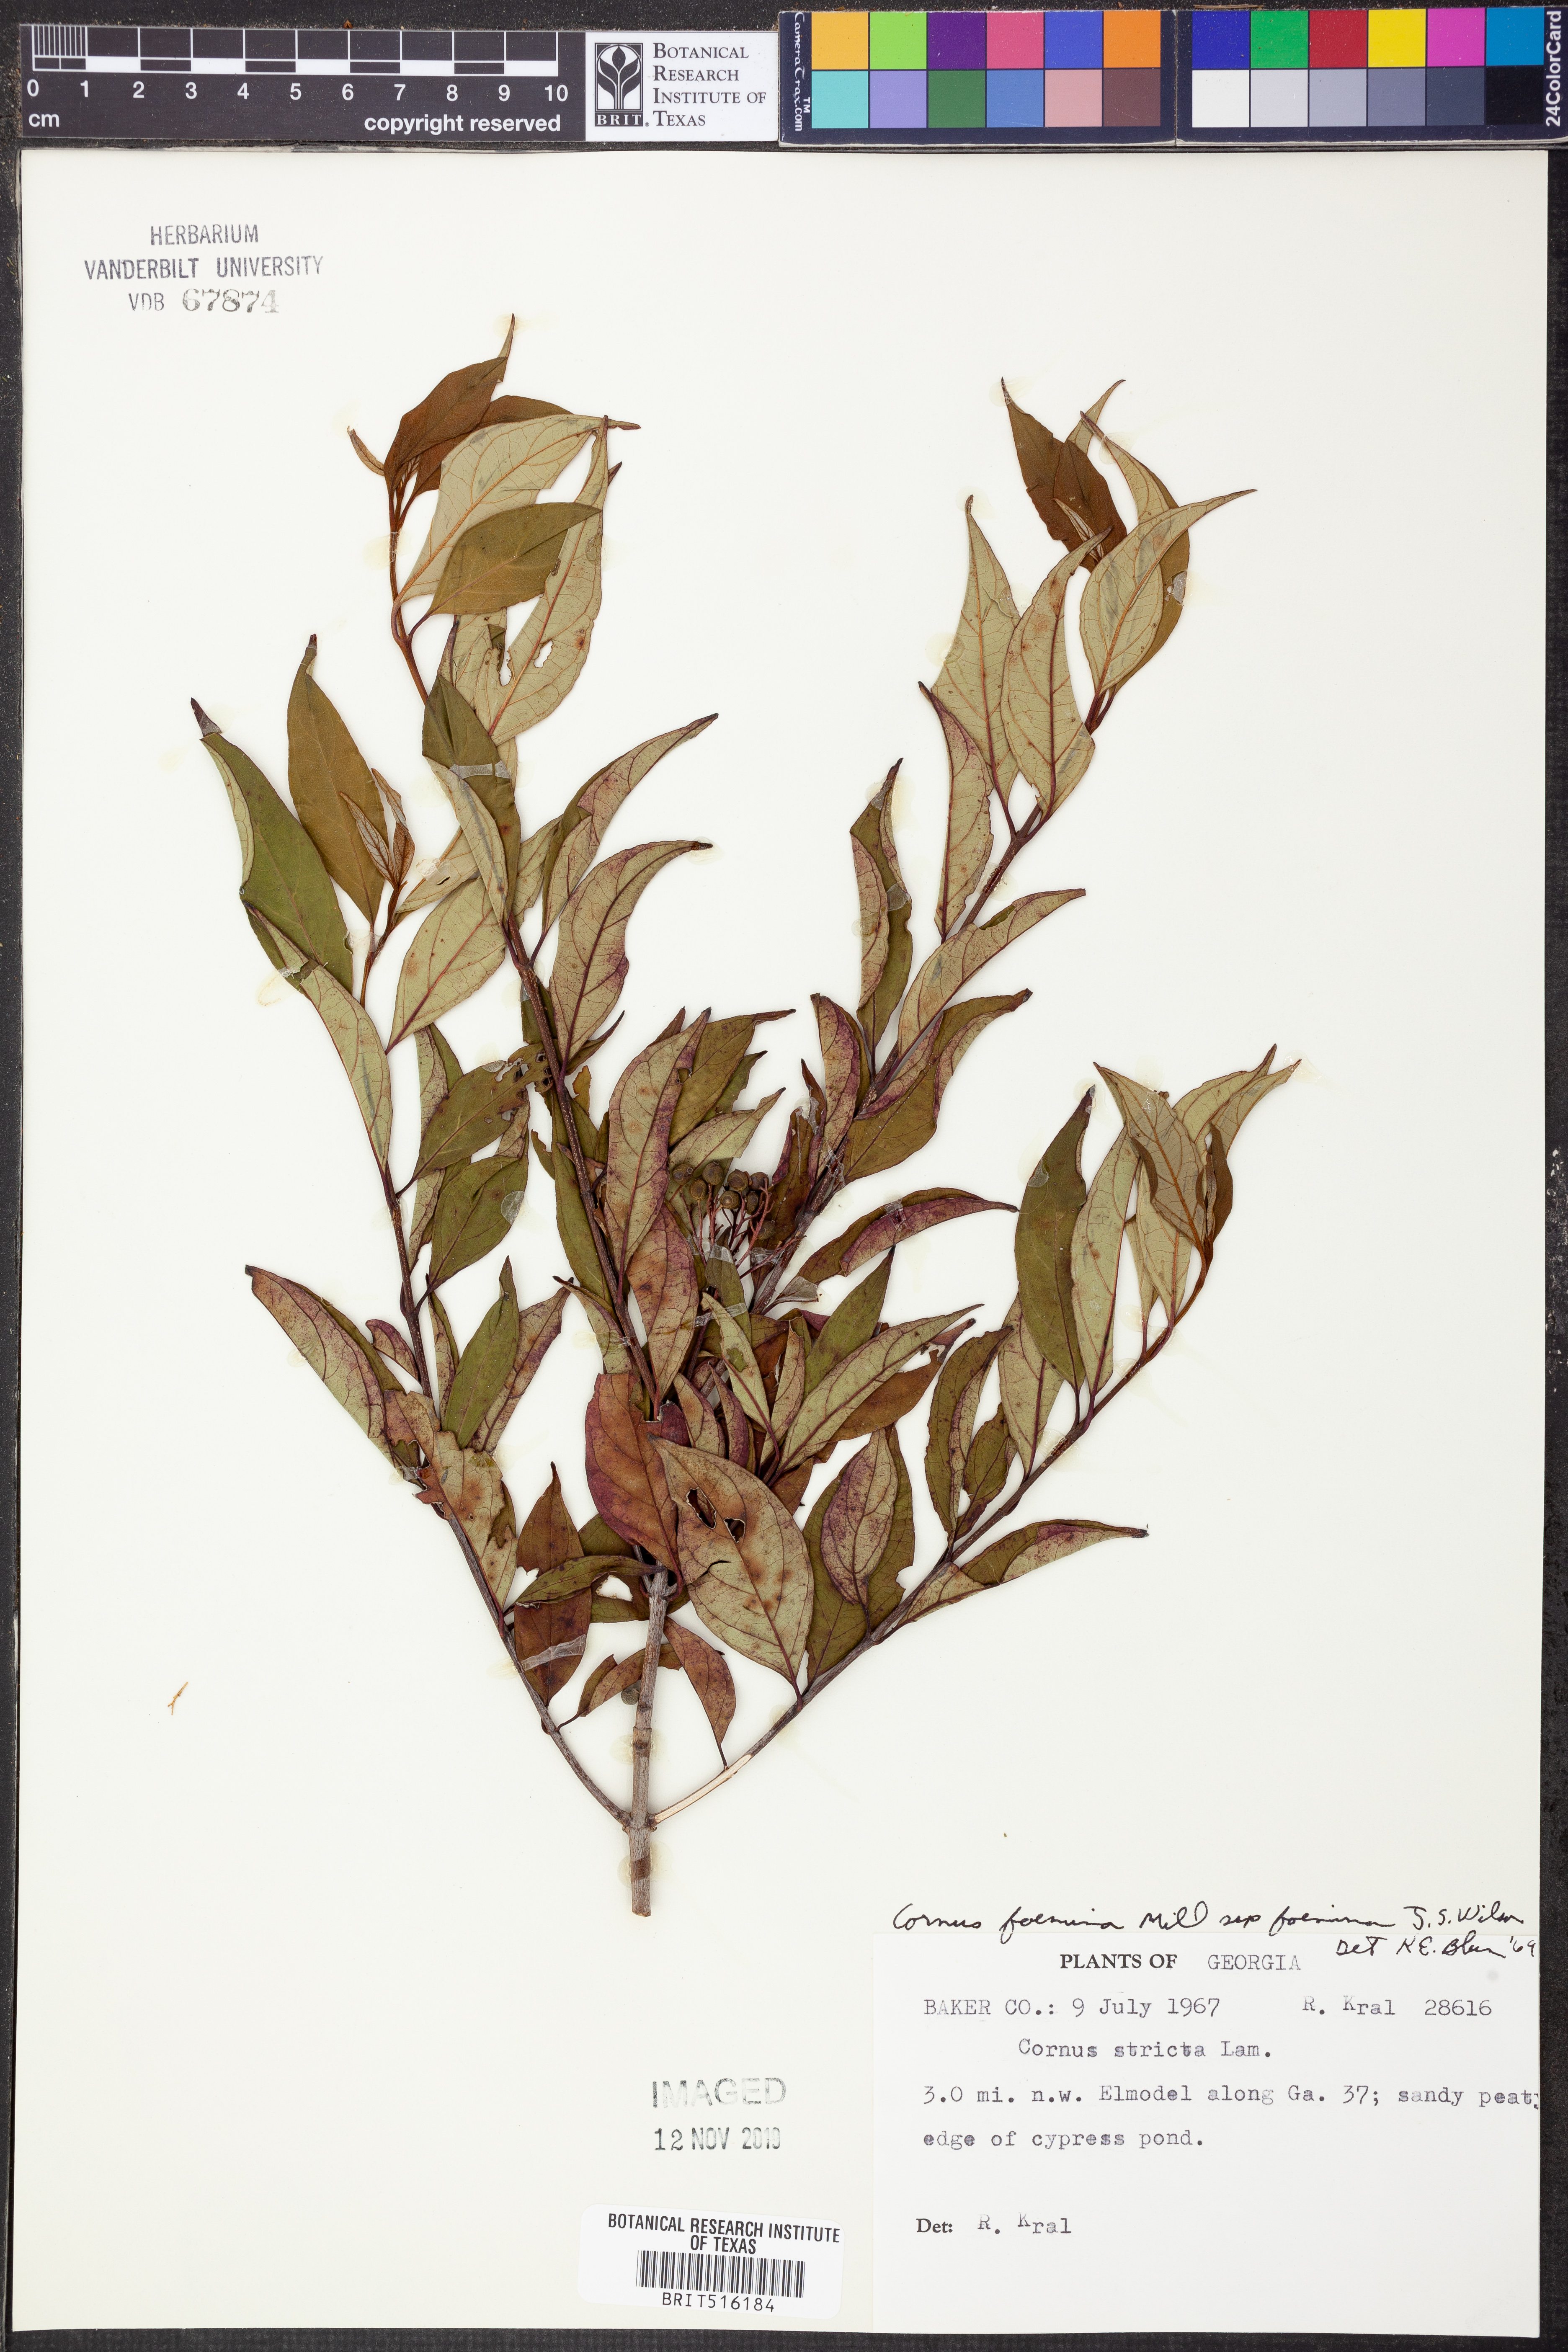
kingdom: Plantae
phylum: Tracheophyta
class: Magnoliopsida
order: Cornales
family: Cornaceae
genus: Cornus
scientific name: Cornus foemina
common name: Swamp dogwood
